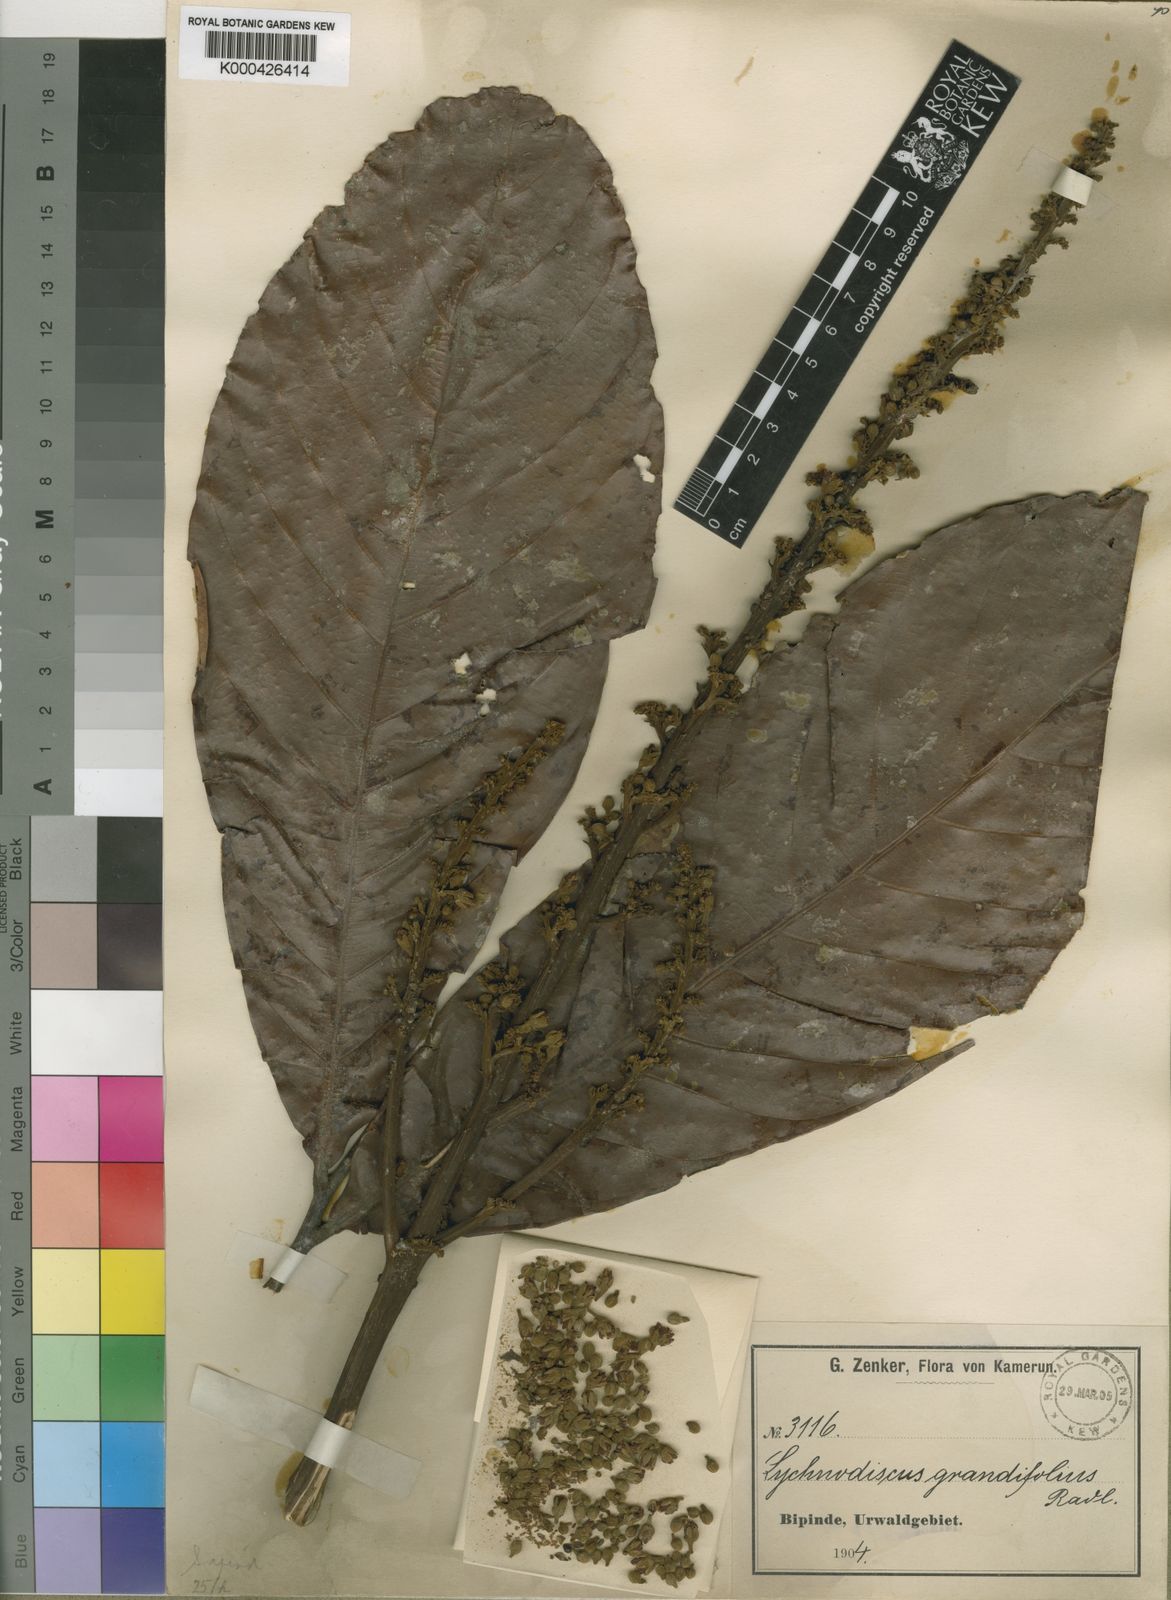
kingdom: Plantae
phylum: Tracheophyta
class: Magnoliopsida
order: Sapindales
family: Sapindaceae
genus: Lychnodiscus
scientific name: Lychnodiscus grandifolius
